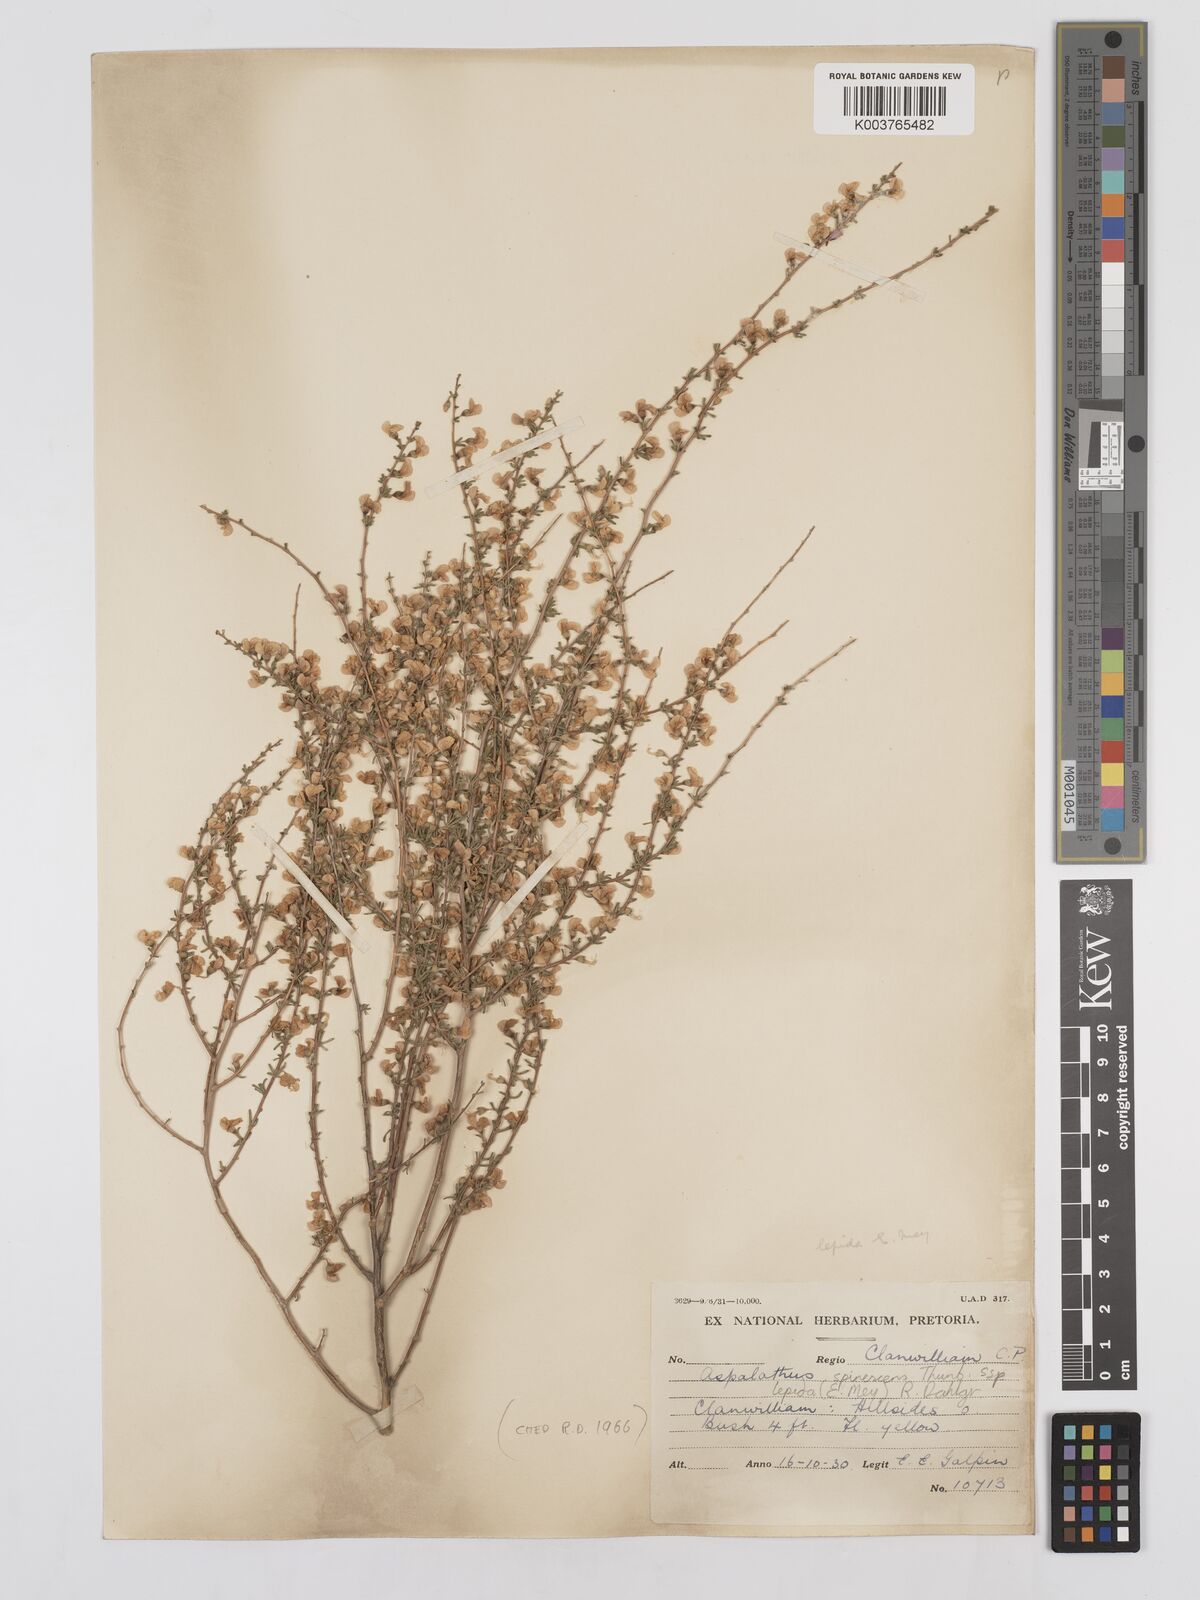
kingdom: Plantae
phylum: Tracheophyta
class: Magnoliopsida
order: Fabales
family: Fabaceae
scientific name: Fabaceae
